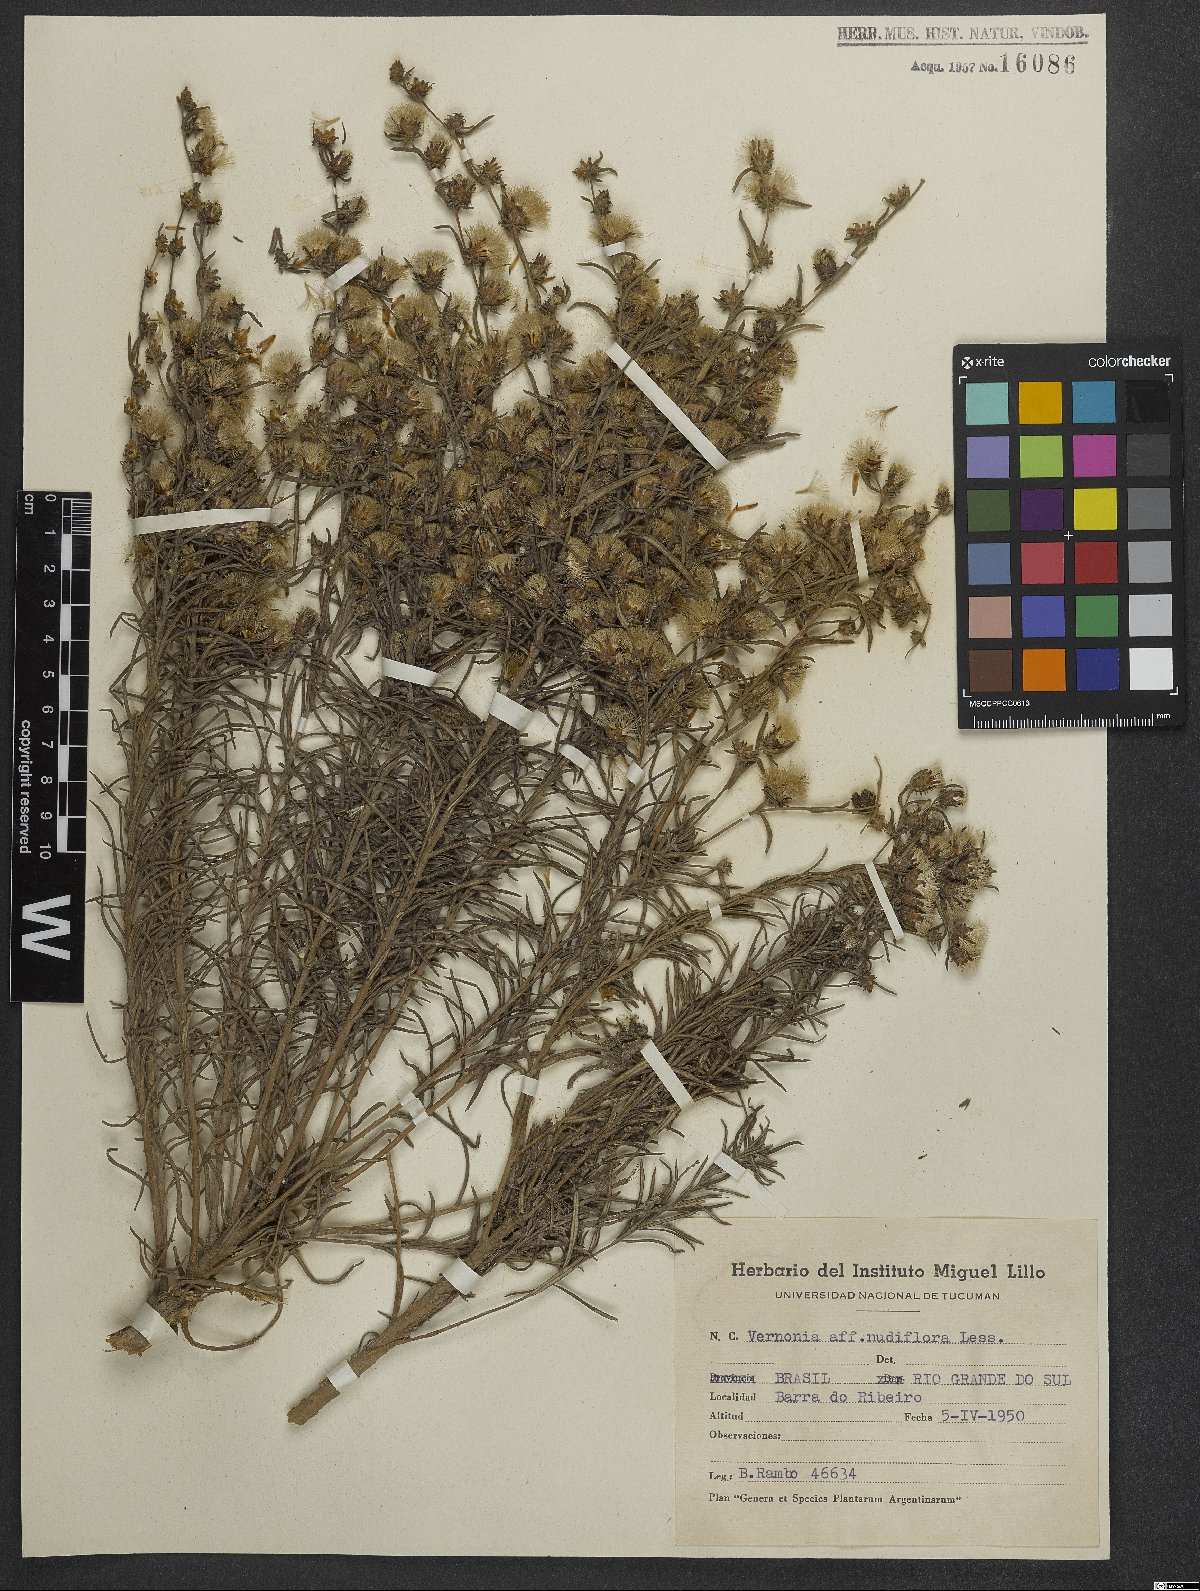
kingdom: Plantae
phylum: Tracheophyta
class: Magnoliopsida
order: Asterales
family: Asteraceae
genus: Vernonanthura
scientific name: Vernonanthura nudiflora
